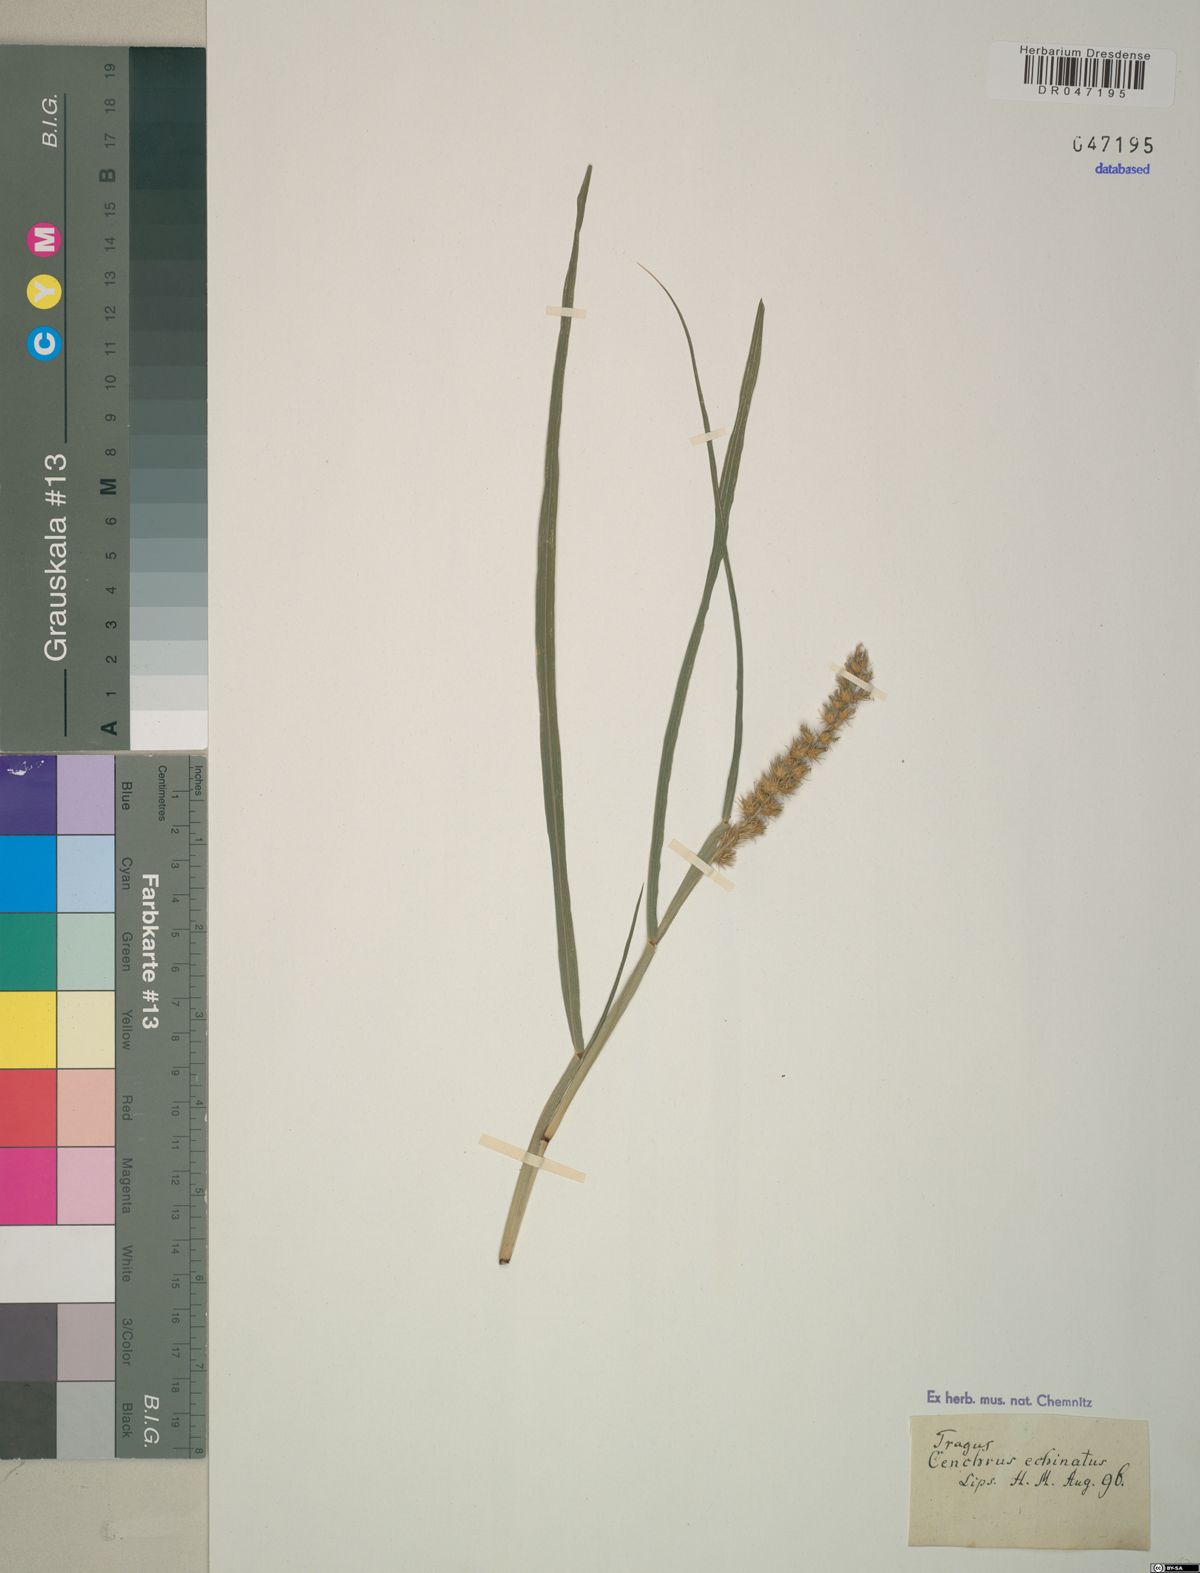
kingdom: Plantae
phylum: Tracheophyta
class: Liliopsida
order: Poales
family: Poaceae
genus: Cenchrus
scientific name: Cenchrus echinatus
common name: Southern sandbur
